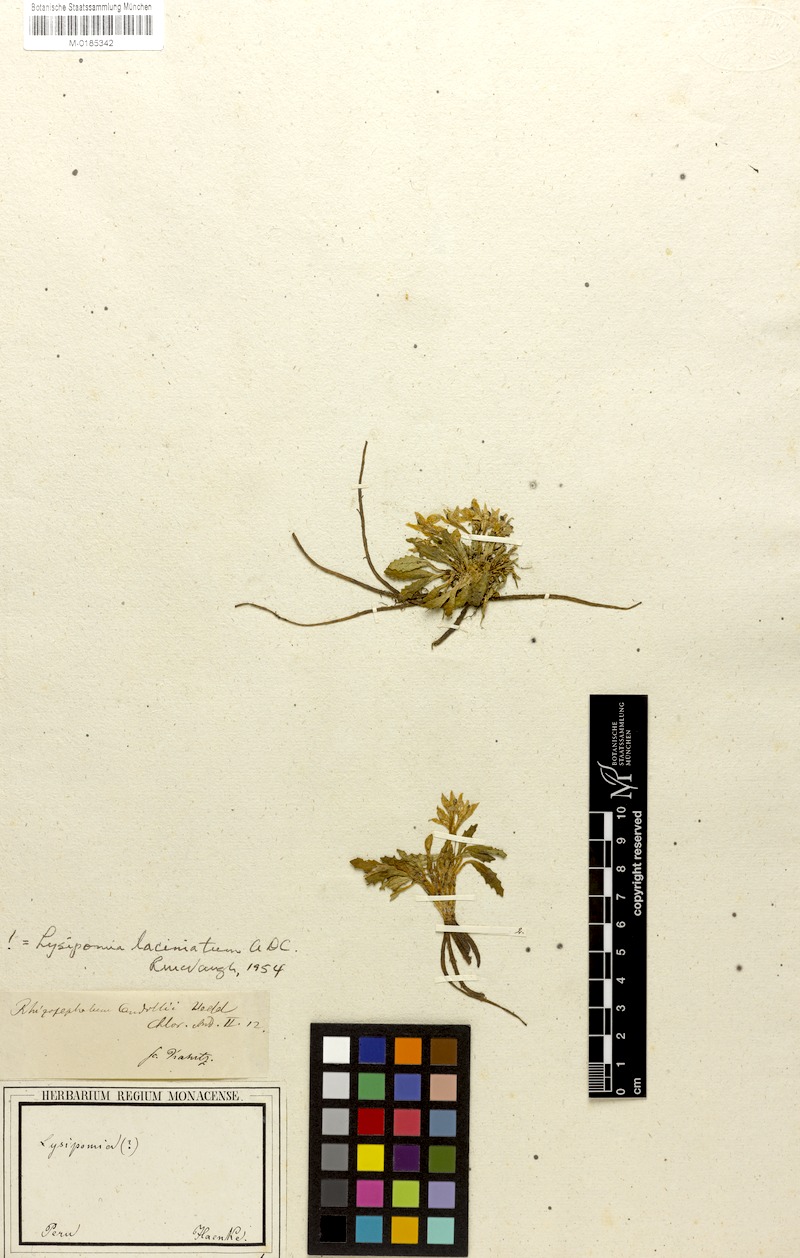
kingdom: Plantae
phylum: Tracheophyta
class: Magnoliopsida
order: Asterales
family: Campanulaceae
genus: Lysipomia
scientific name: Lysipomia laciniata
